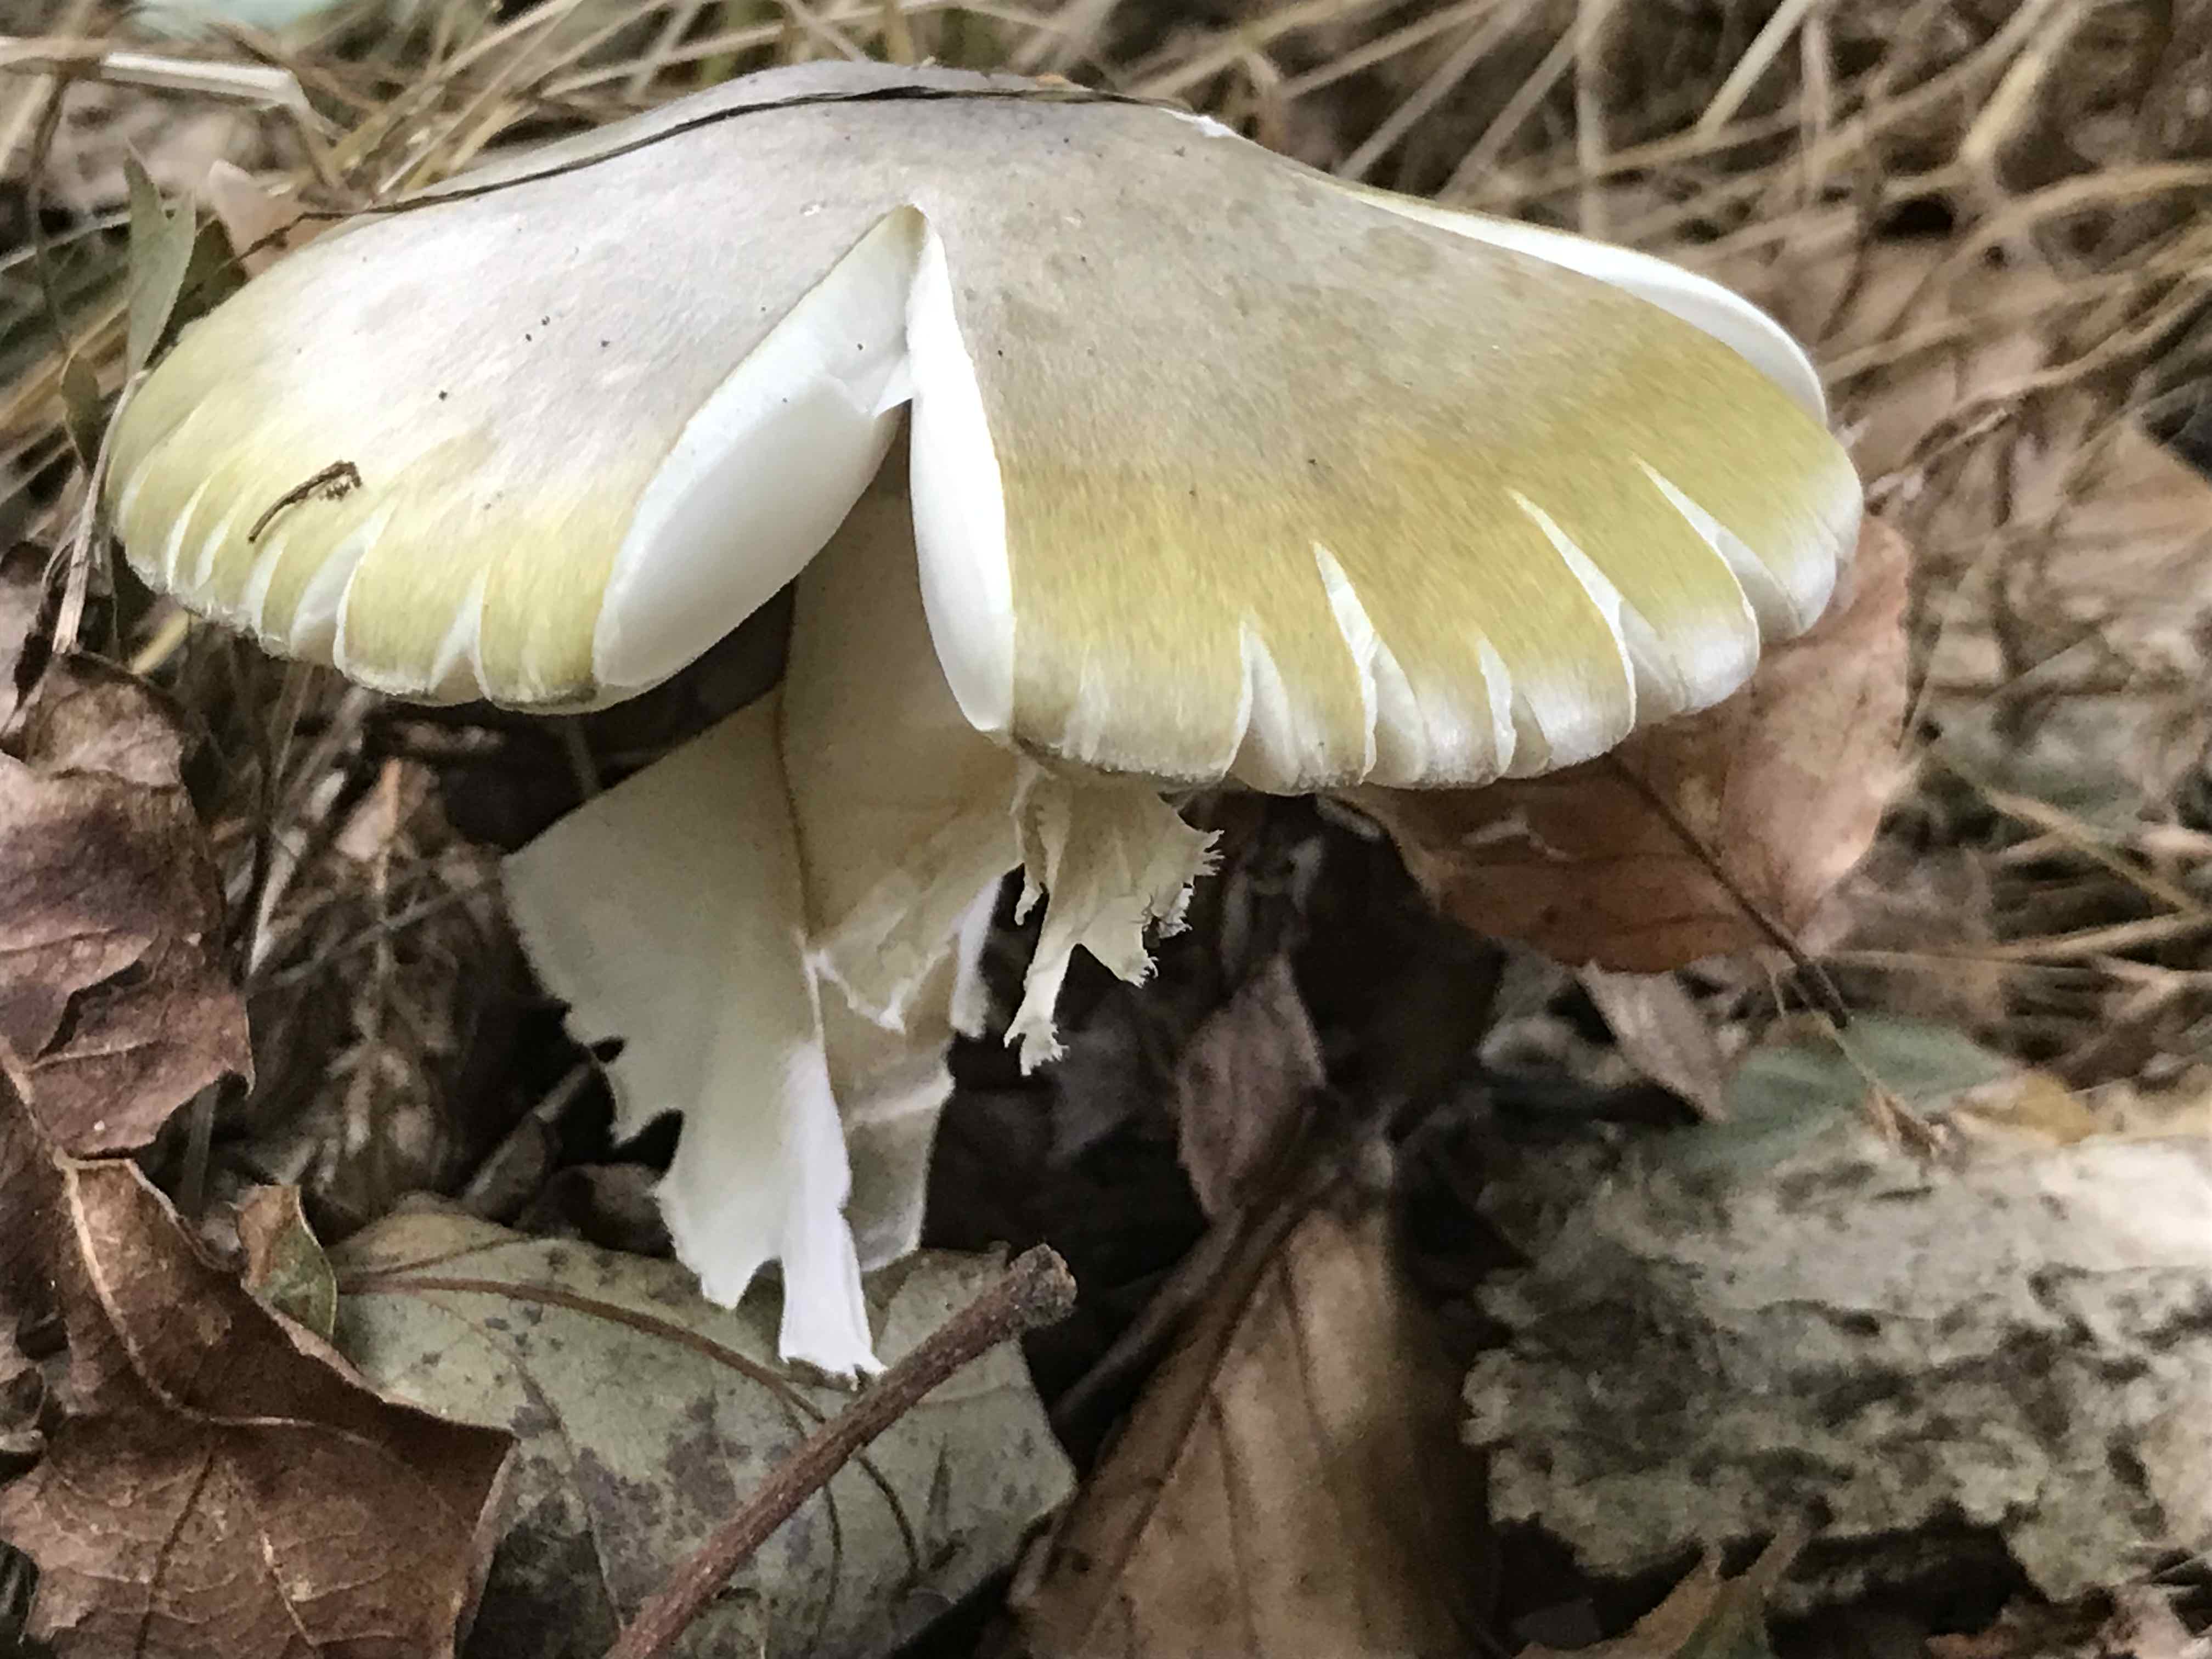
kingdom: Fungi
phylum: Basidiomycota
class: Agaricomycetes
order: Agaricales
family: Amanitaceae
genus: Amanita
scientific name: Amanita phalloides
